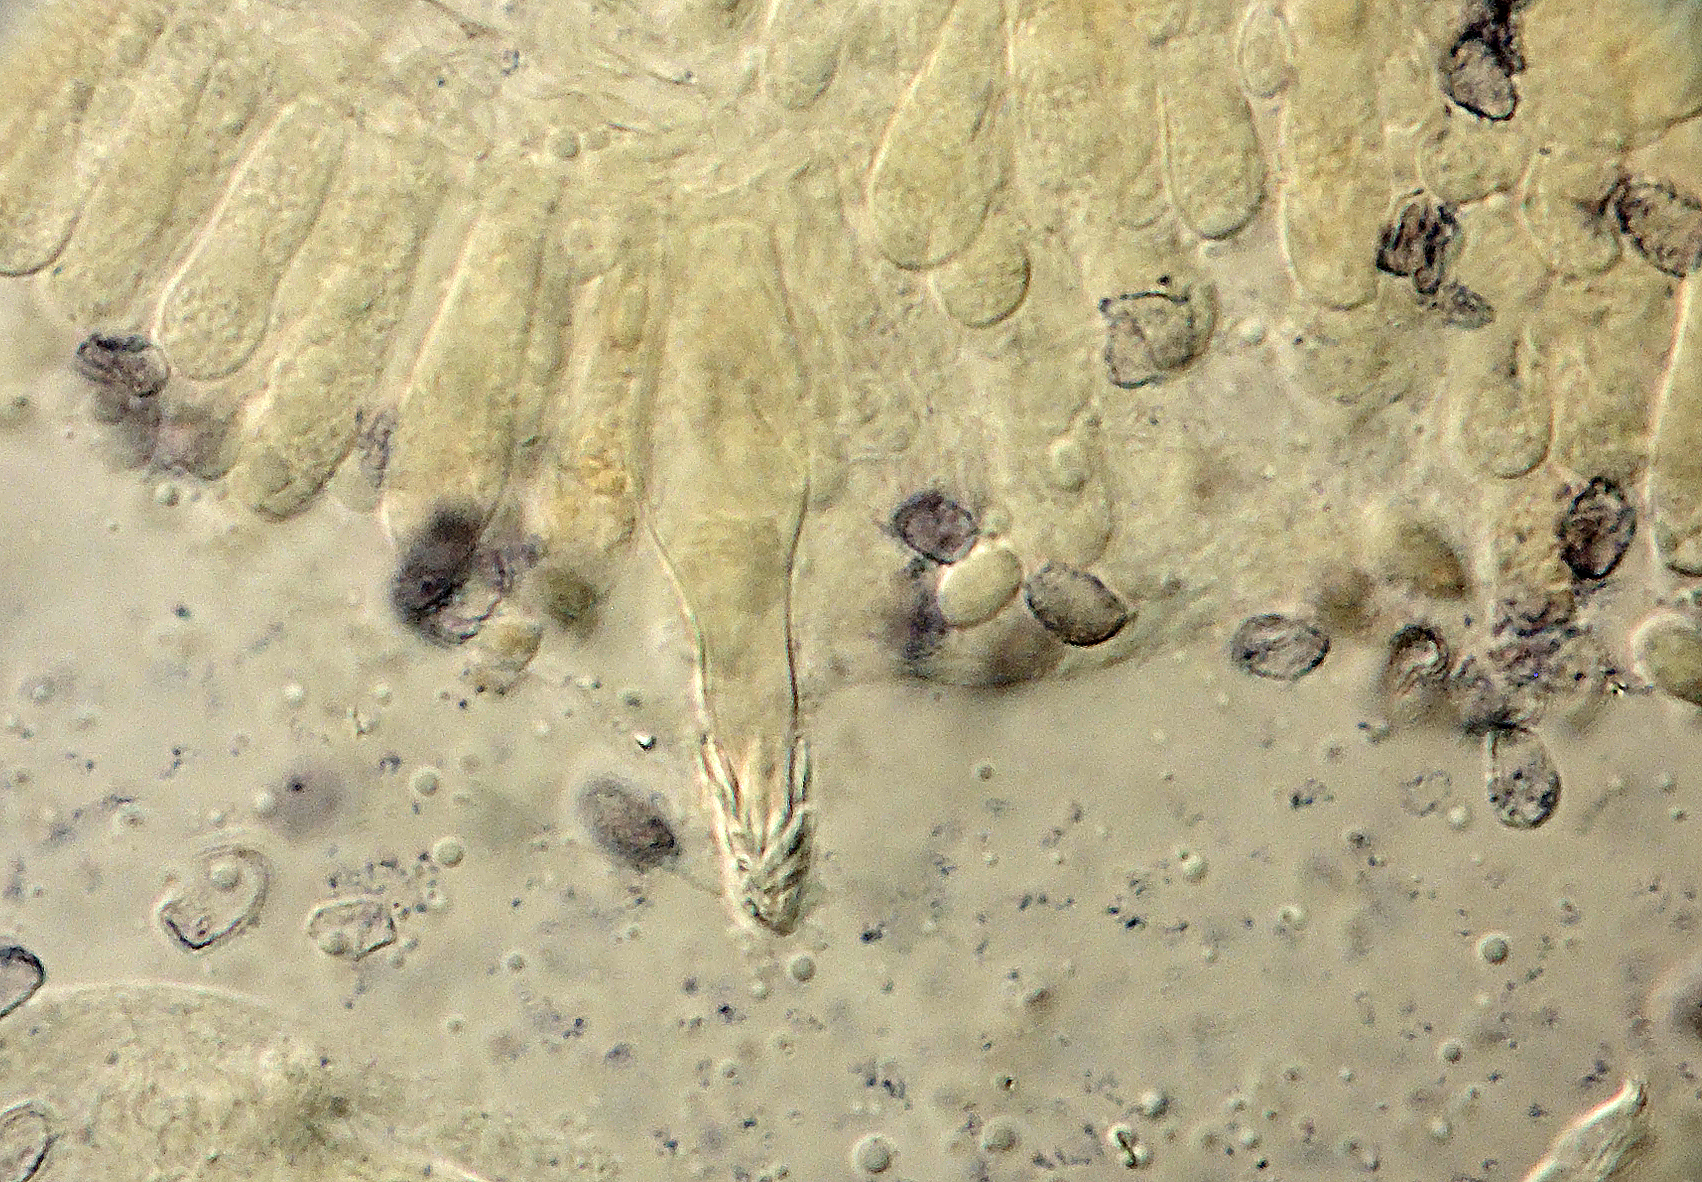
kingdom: Fungi
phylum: Basidiomycota
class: Agaricomycetes
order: Agaricales
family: Tricholomataceae
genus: Melanoleuca
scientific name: Melanoleuca bataillei
